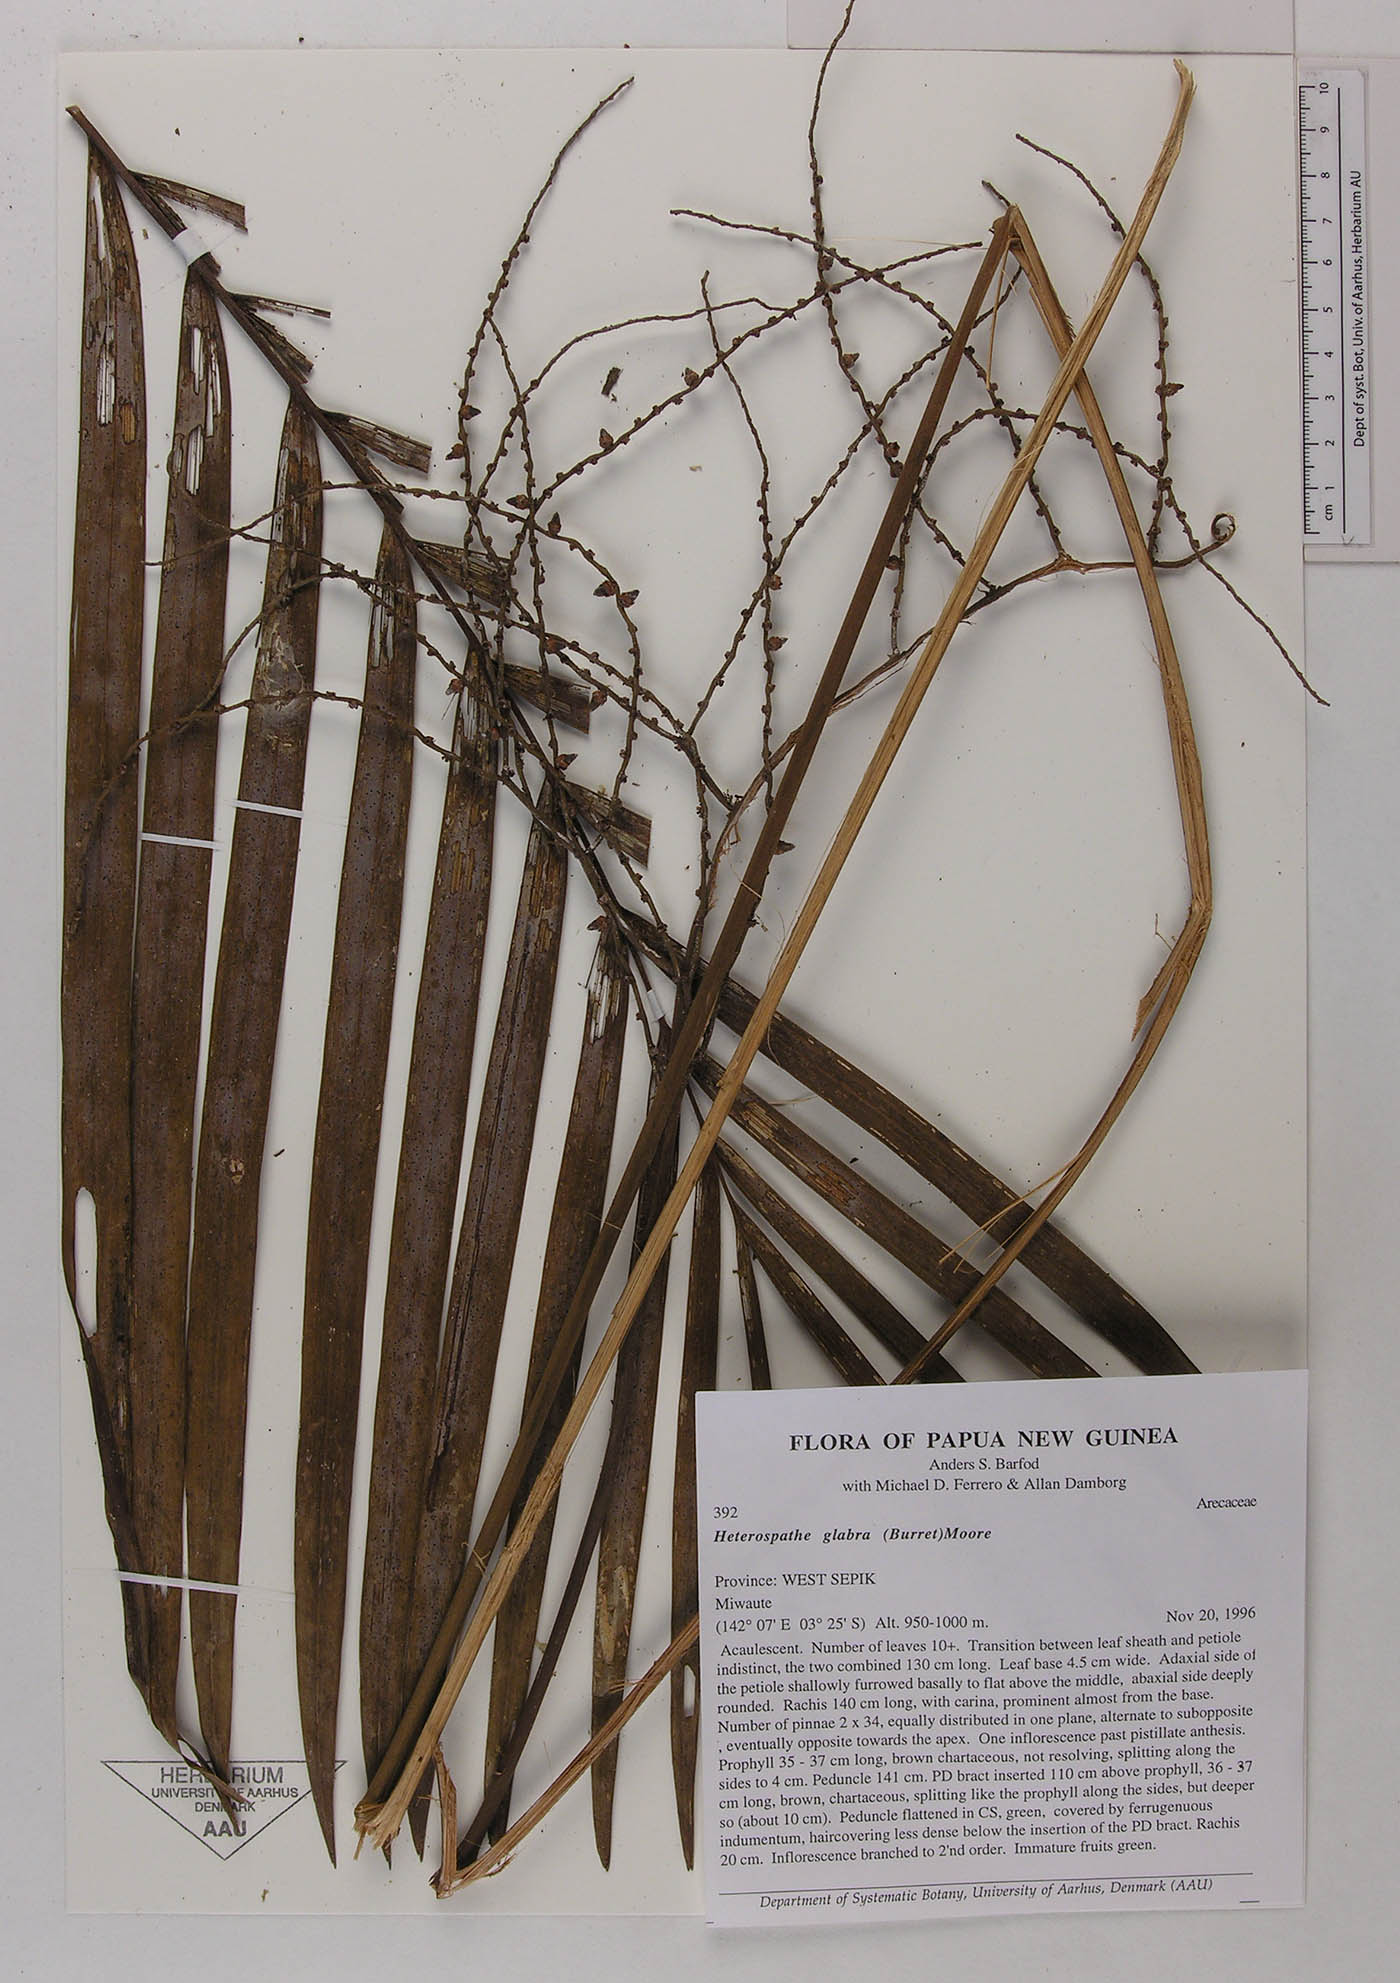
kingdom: Plantae
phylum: Tracheophyta
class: Liliopsida
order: Arecales
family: Arecaceae
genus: Heterospathe
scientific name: Heterospathe elegans
